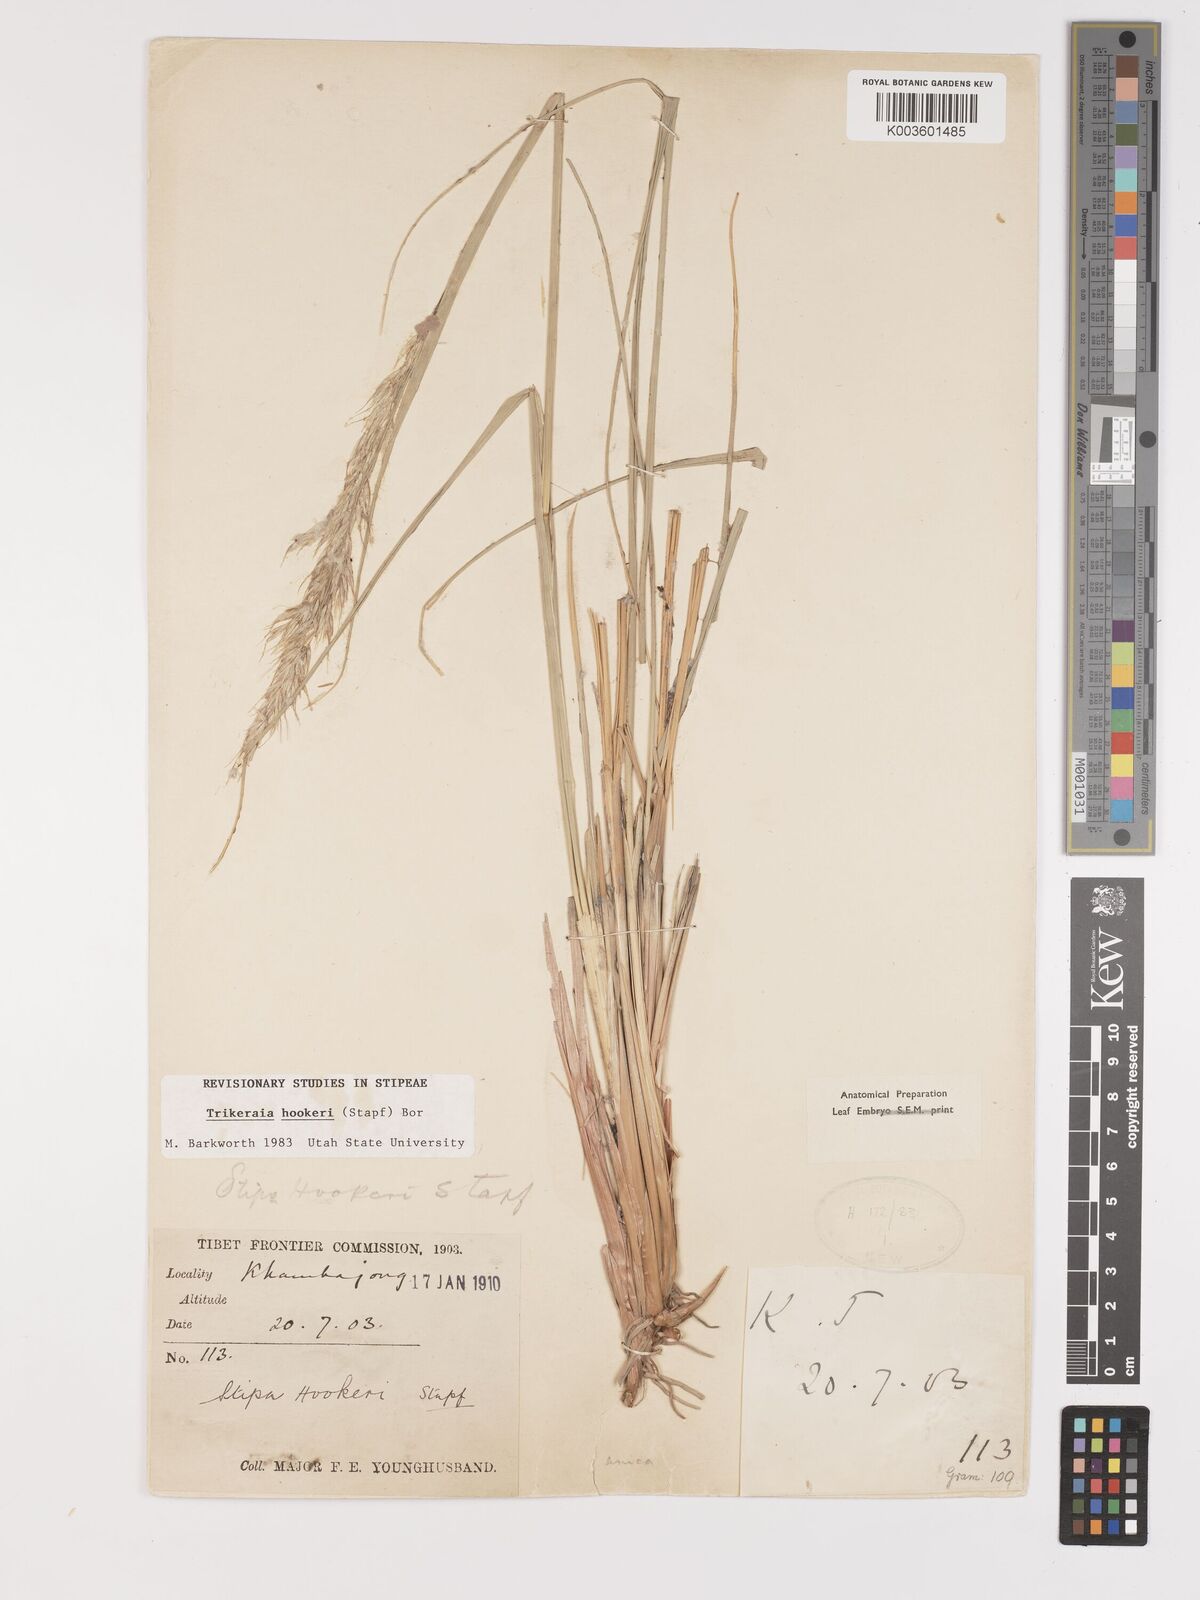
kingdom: Plantae
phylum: Tracheophyta
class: Liliopsida
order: Poales
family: Poaceae
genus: Trikeraia
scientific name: Trikeraia hookeri
